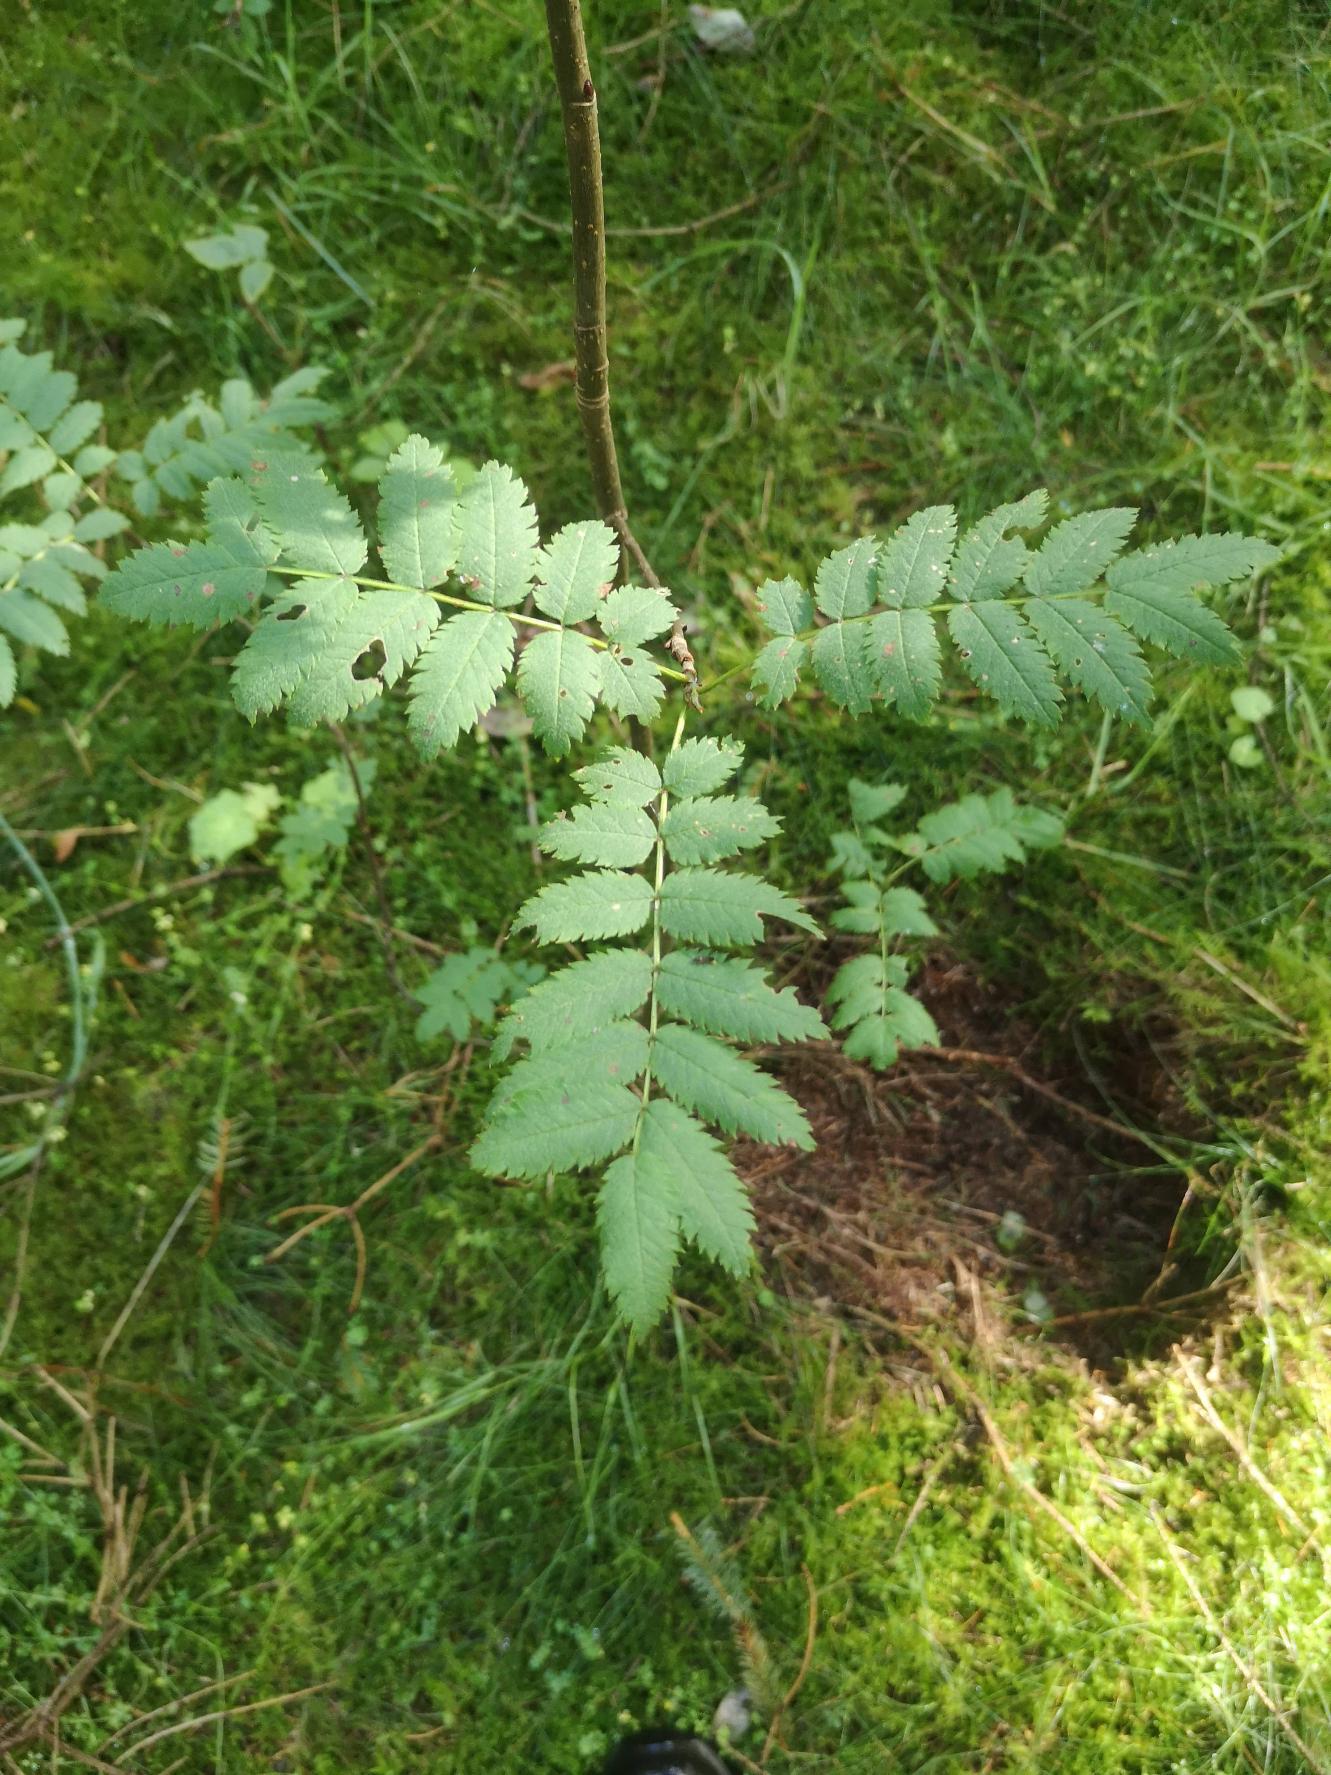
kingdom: Plantae
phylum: Tracheophyta
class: Magnoliopsida
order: Rosales
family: Rosaceae
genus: Sorbus
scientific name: Sorbus aucuparia
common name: Almindelig røn
